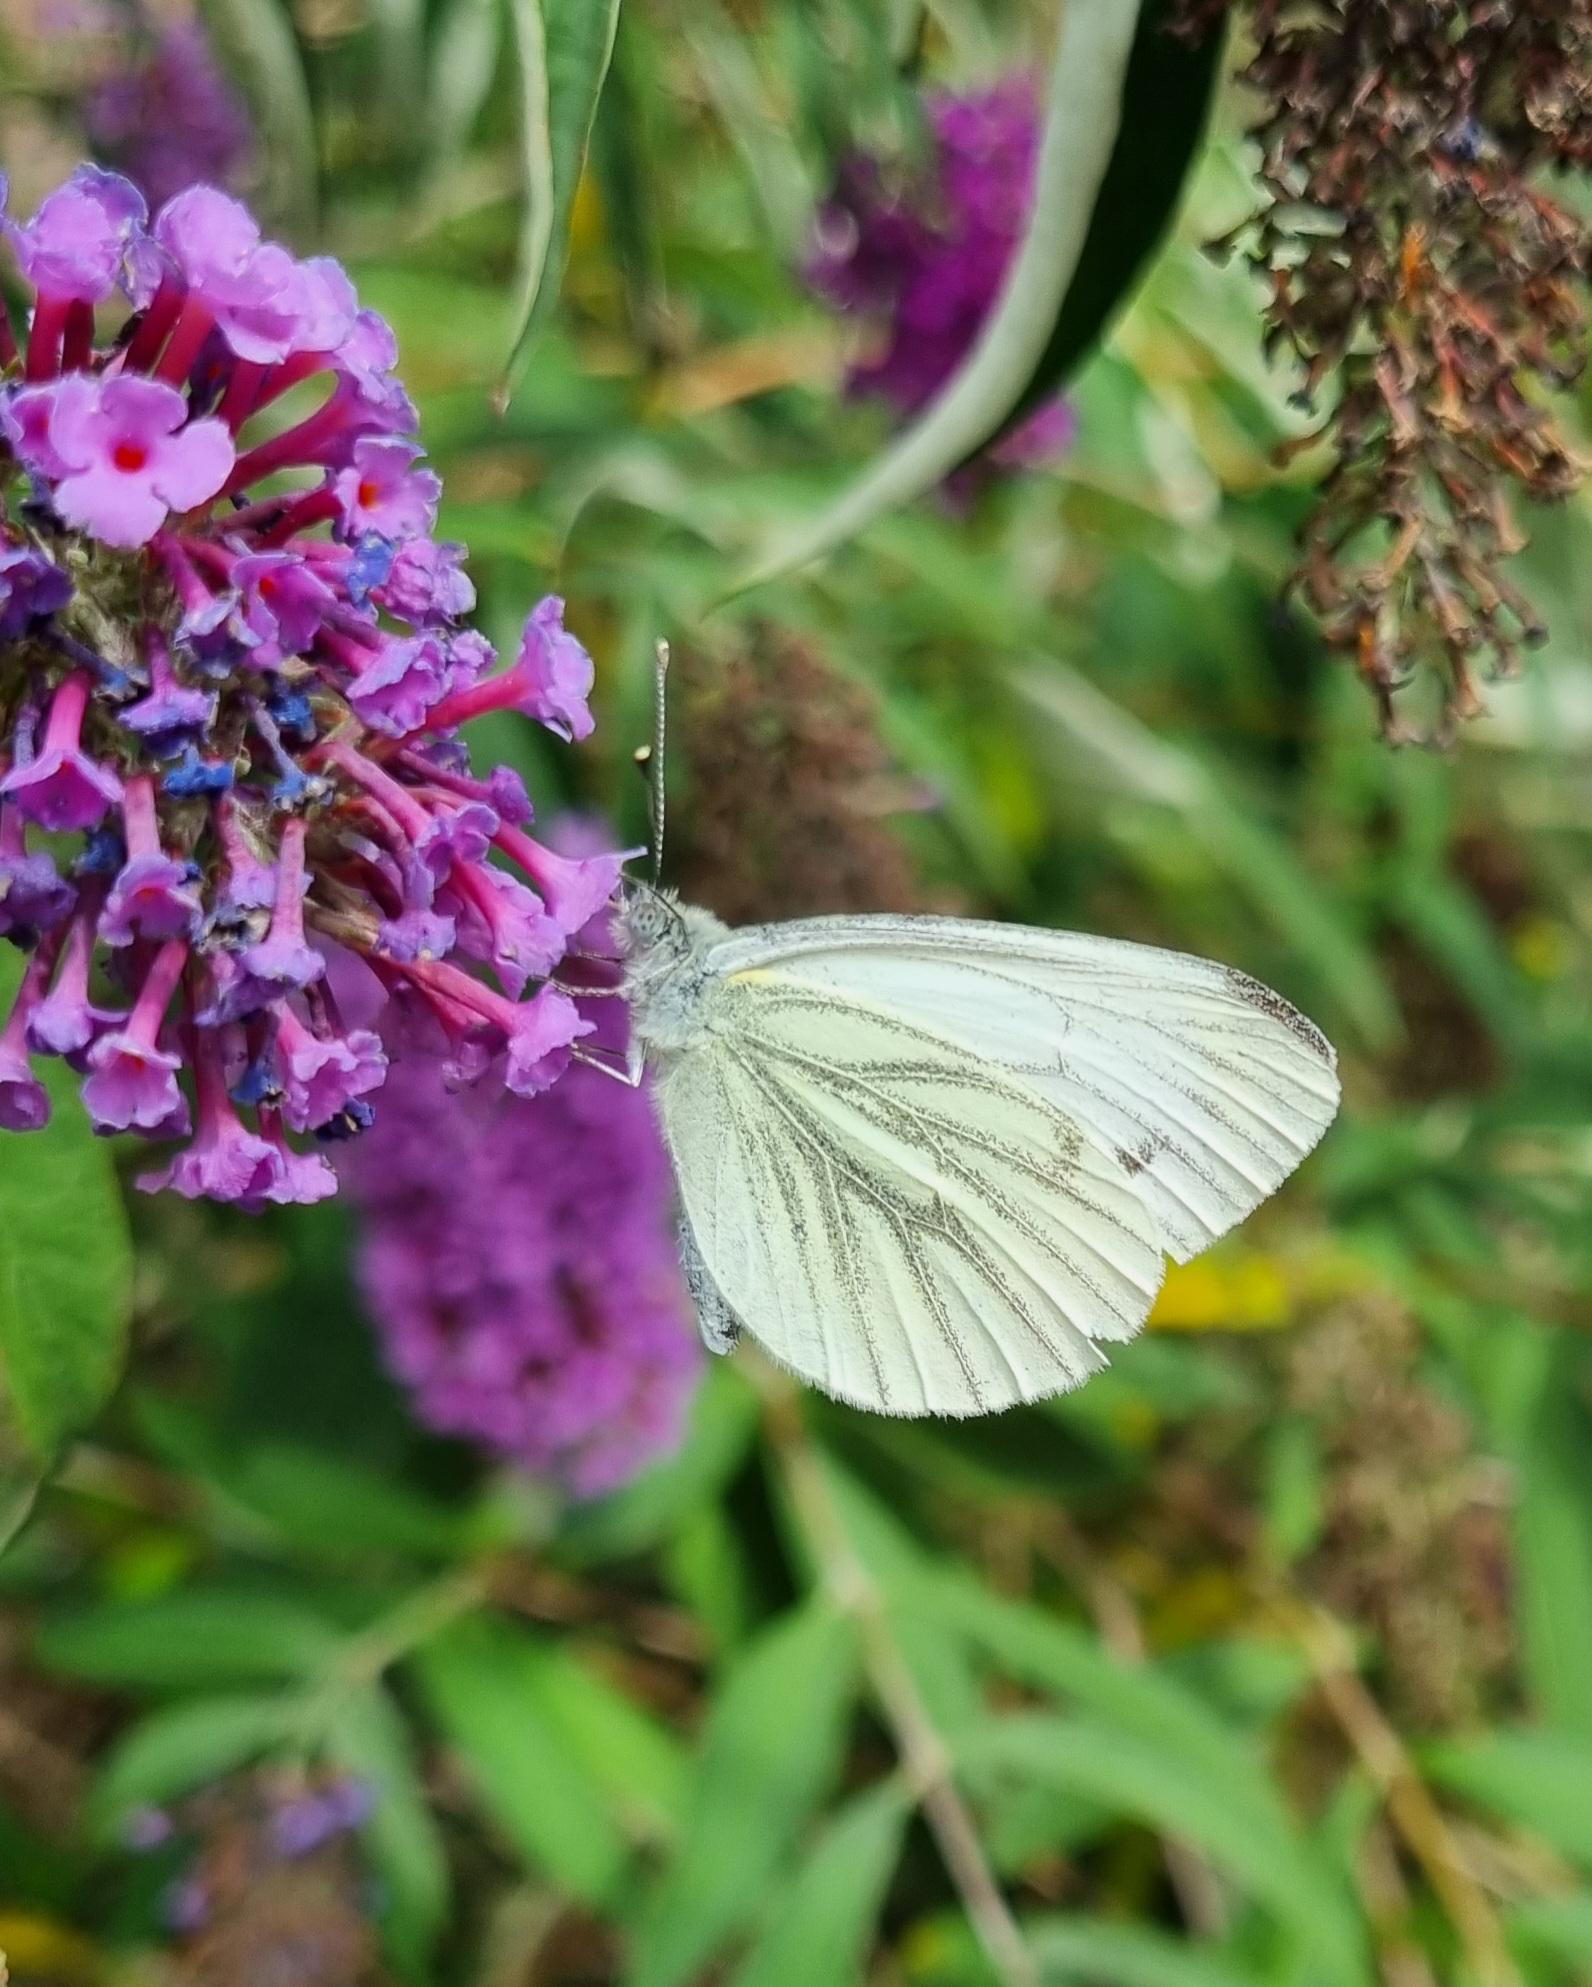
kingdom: Animalia
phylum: Arthropoda
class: Insecta
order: Lepidoptera
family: Pieridae
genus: Pieris
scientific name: Pieris napi
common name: Grønåret kålsommerfugl
